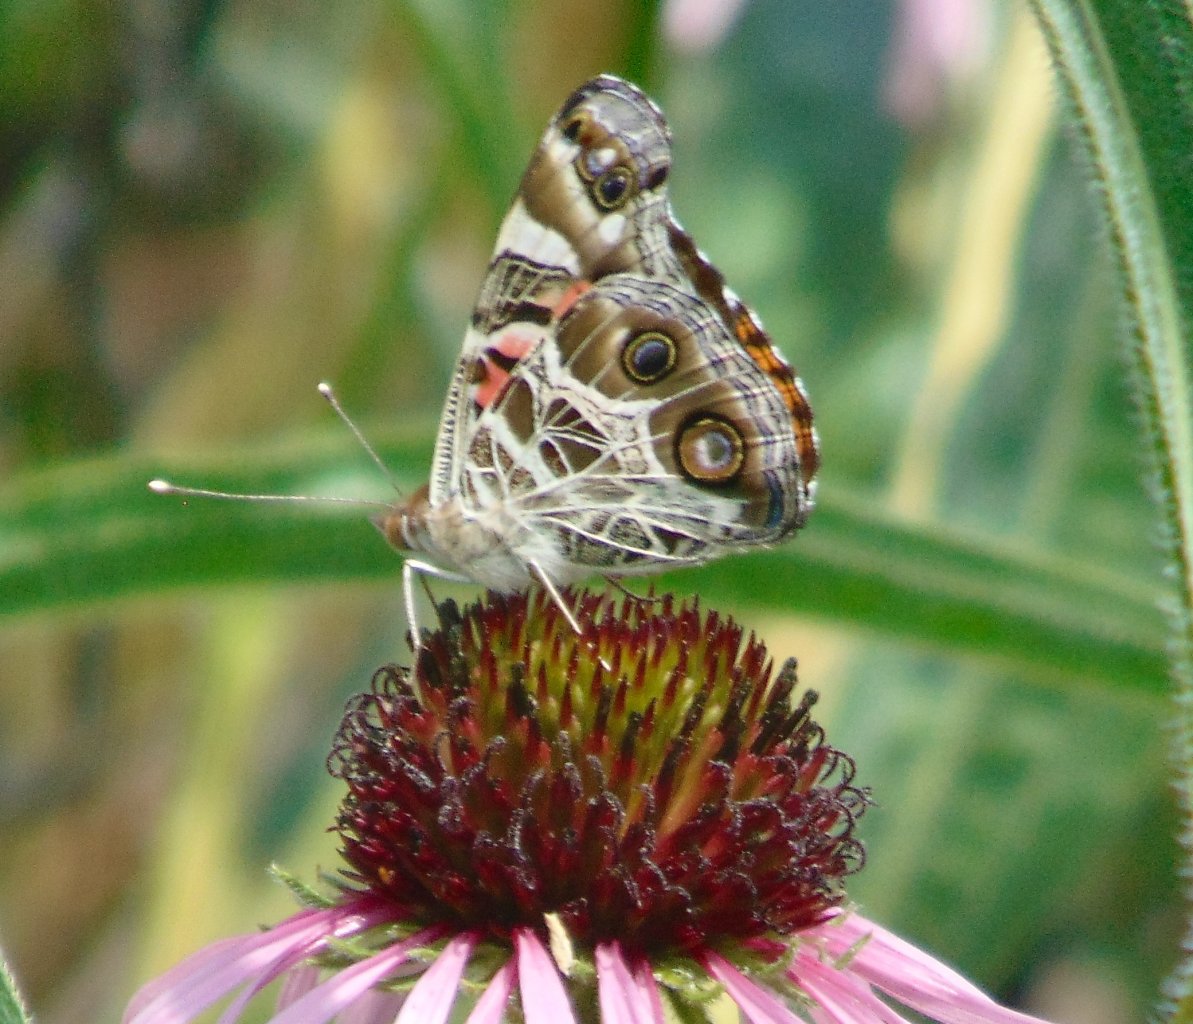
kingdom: Animalia
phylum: Arthropoda
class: Insecta
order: Lepidoptera
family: Nymphalidae
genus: Vanessa
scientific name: Vanessa virginiensis
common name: American Lady
